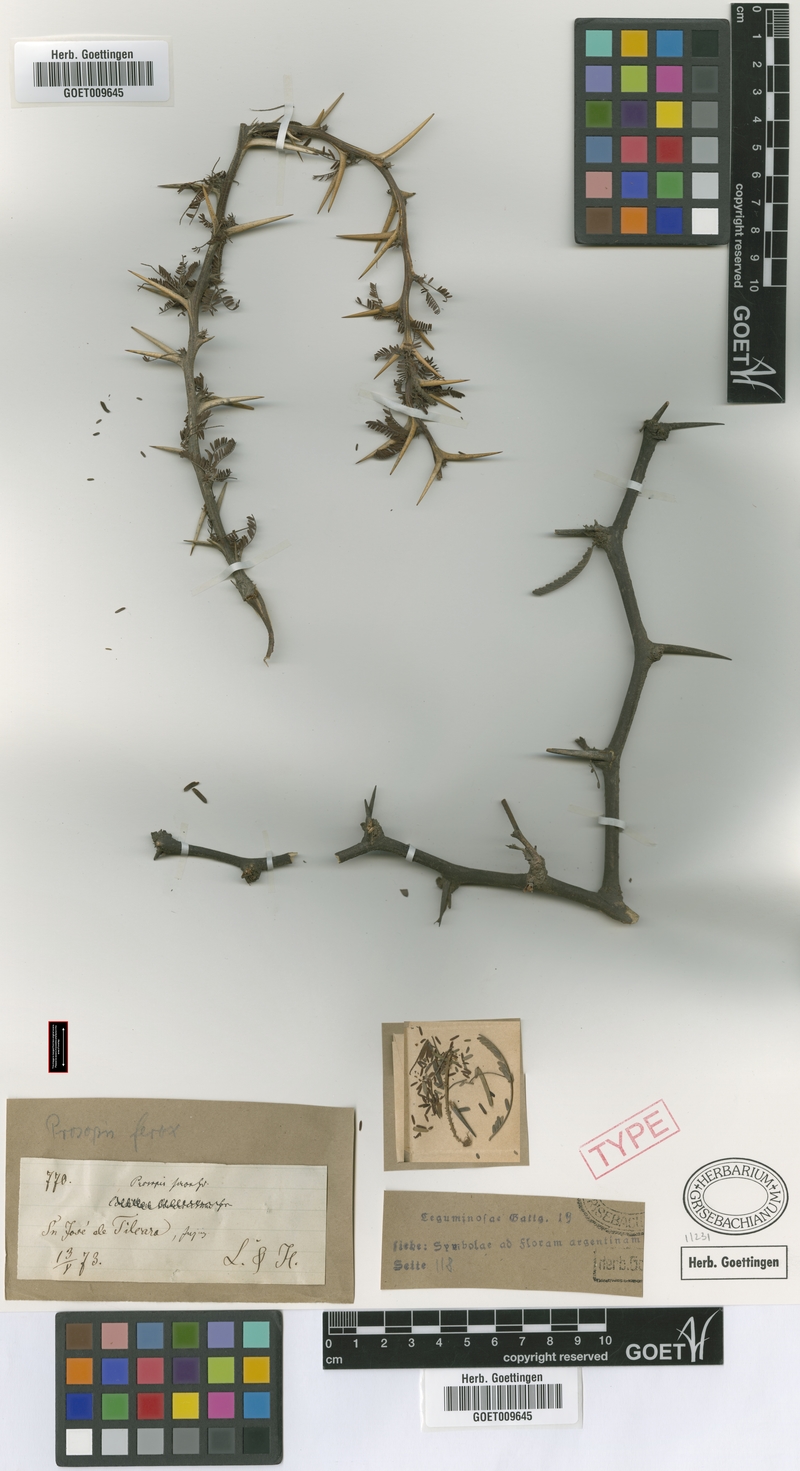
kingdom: Plantae
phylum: Tracheophyta
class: Magnoliopsida
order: Fabales
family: Fabaceae
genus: Prosopis
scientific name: Prosopis ferox
